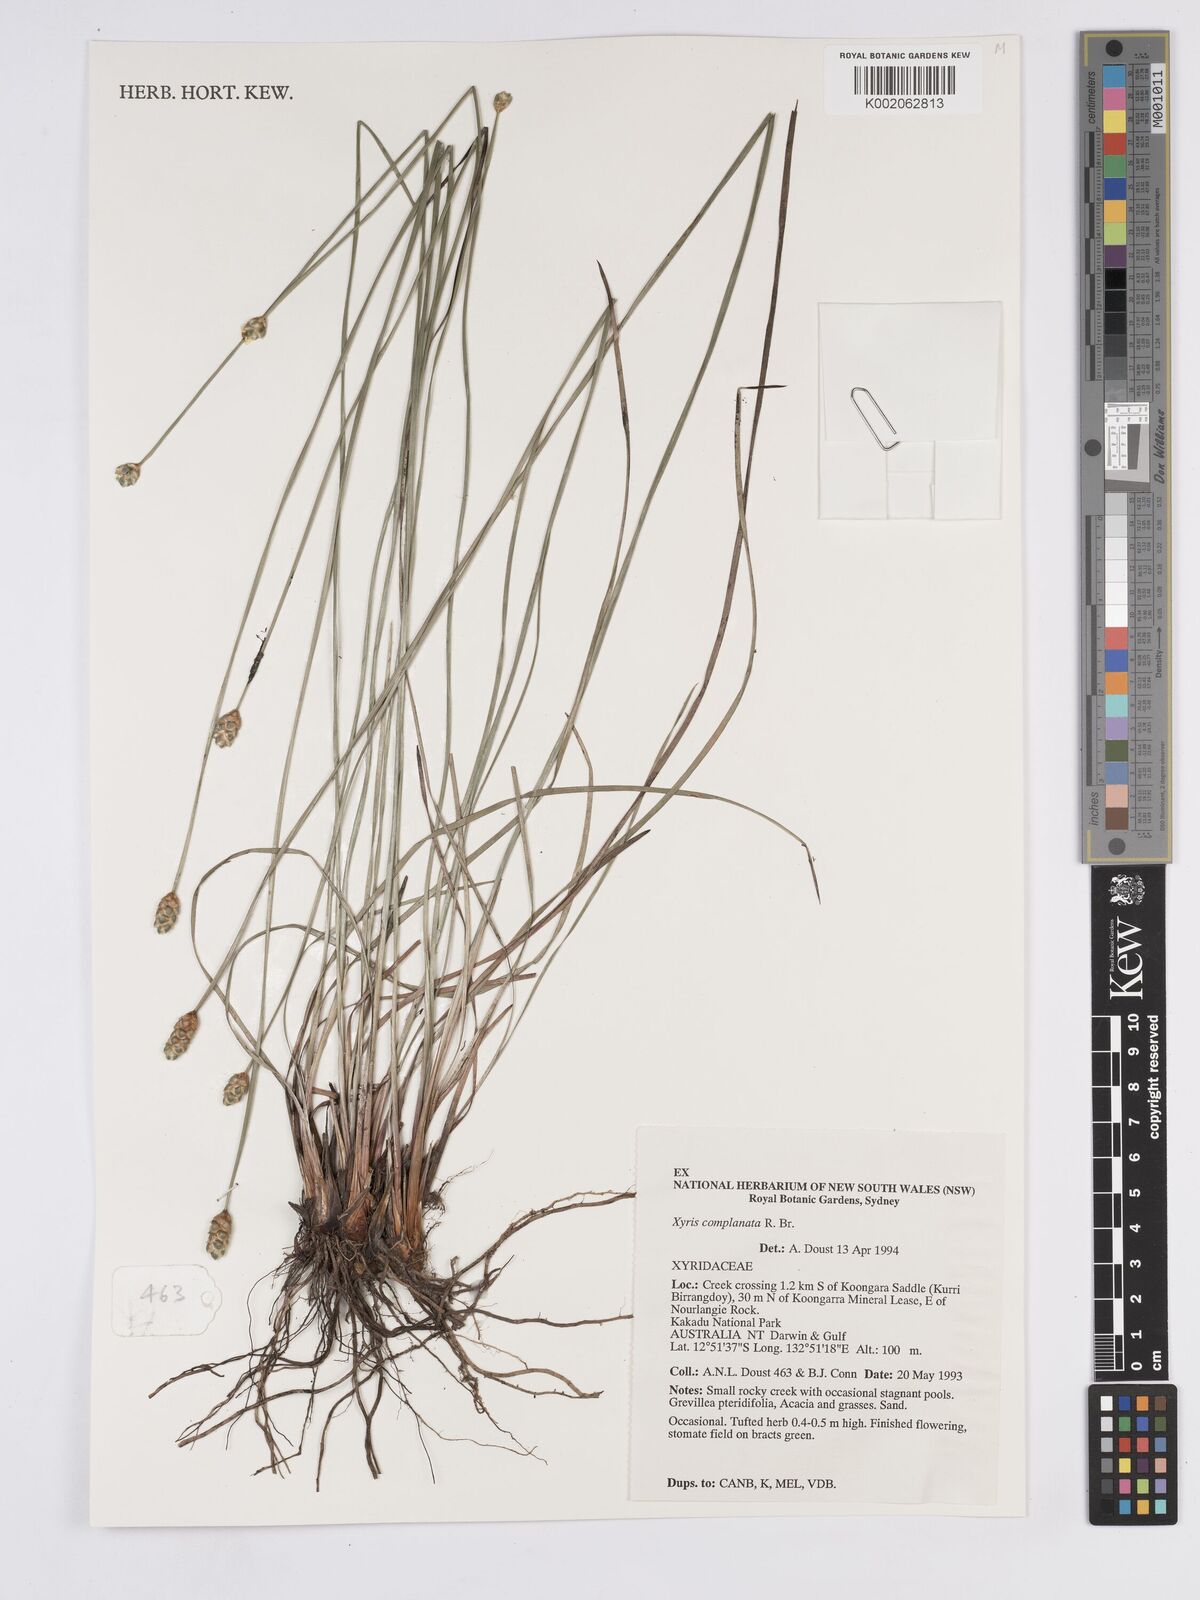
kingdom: Plantae
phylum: Tracheophyta
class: Liliopsida
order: Poales
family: Xyridaceae
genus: Xyris
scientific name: Xyris complanata
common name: Hawai'i yelloweyed grass
